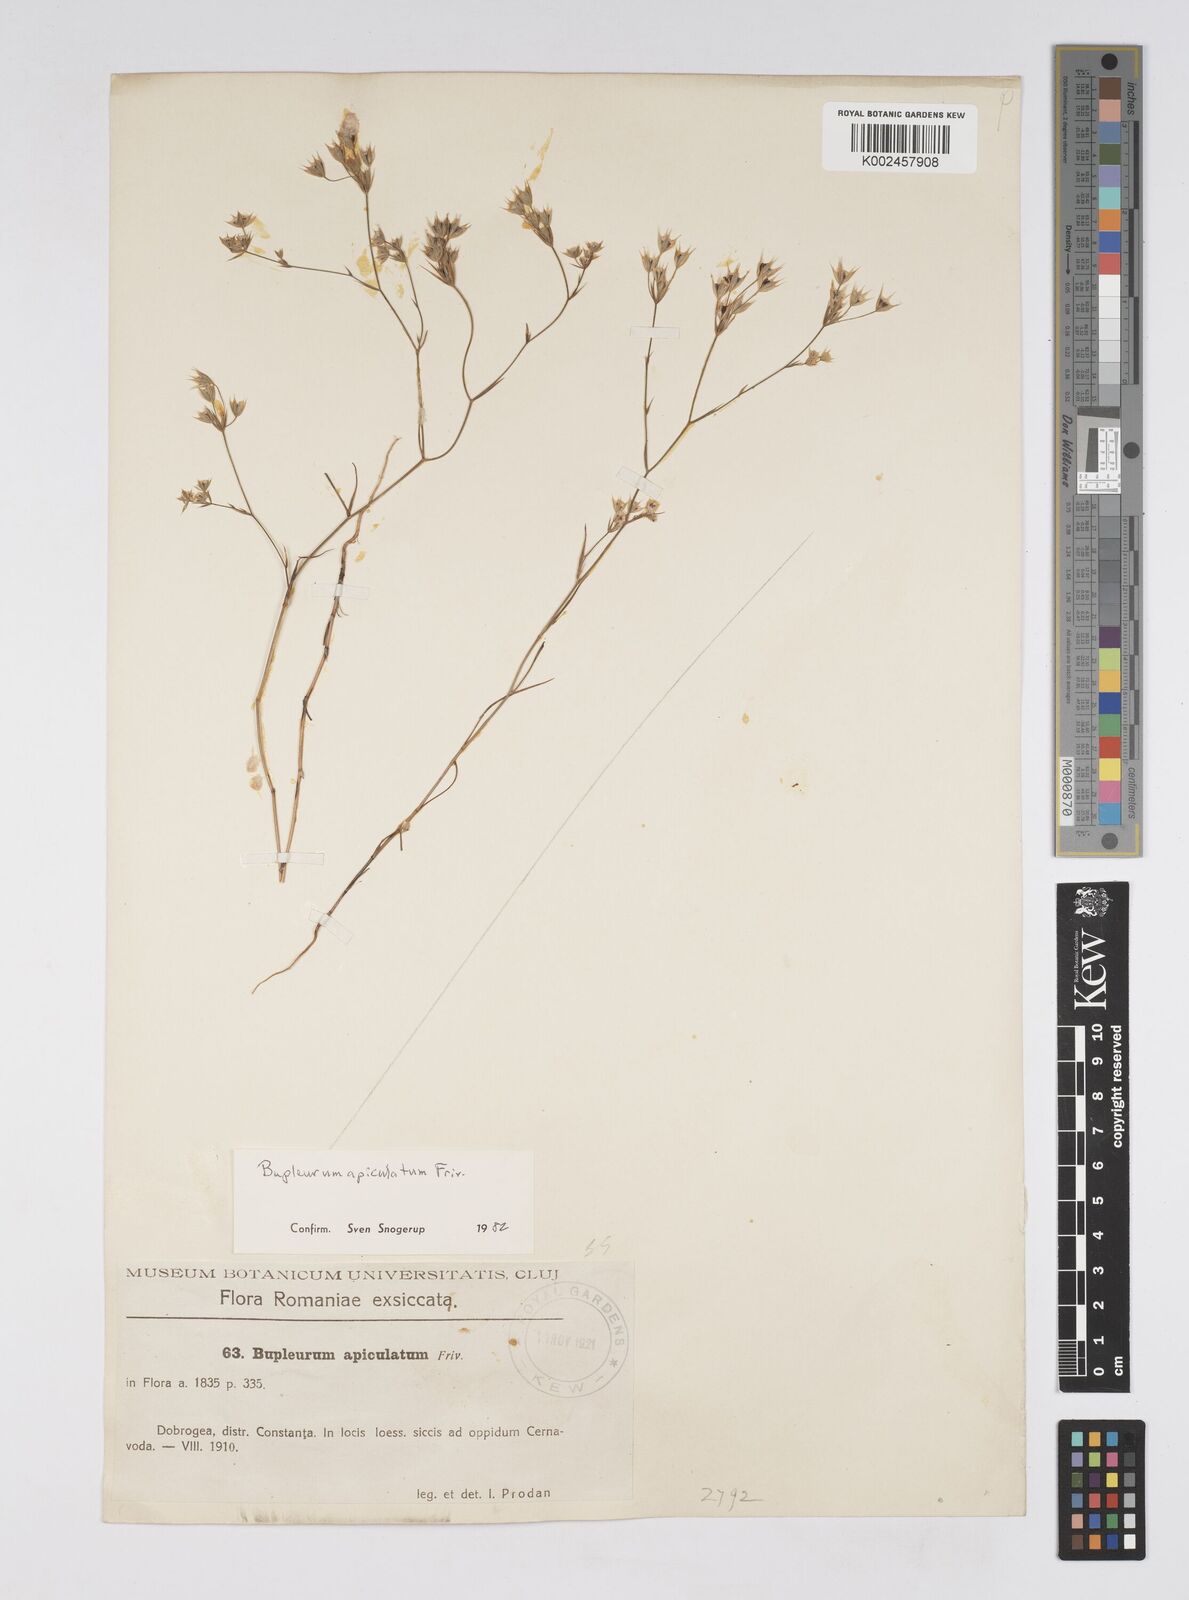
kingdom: Plantae
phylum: Tracheophyta
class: Magnoliopsida
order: Apiales
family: Apiaceae
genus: Bupleurum
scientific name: Bupleurum apiculatum
